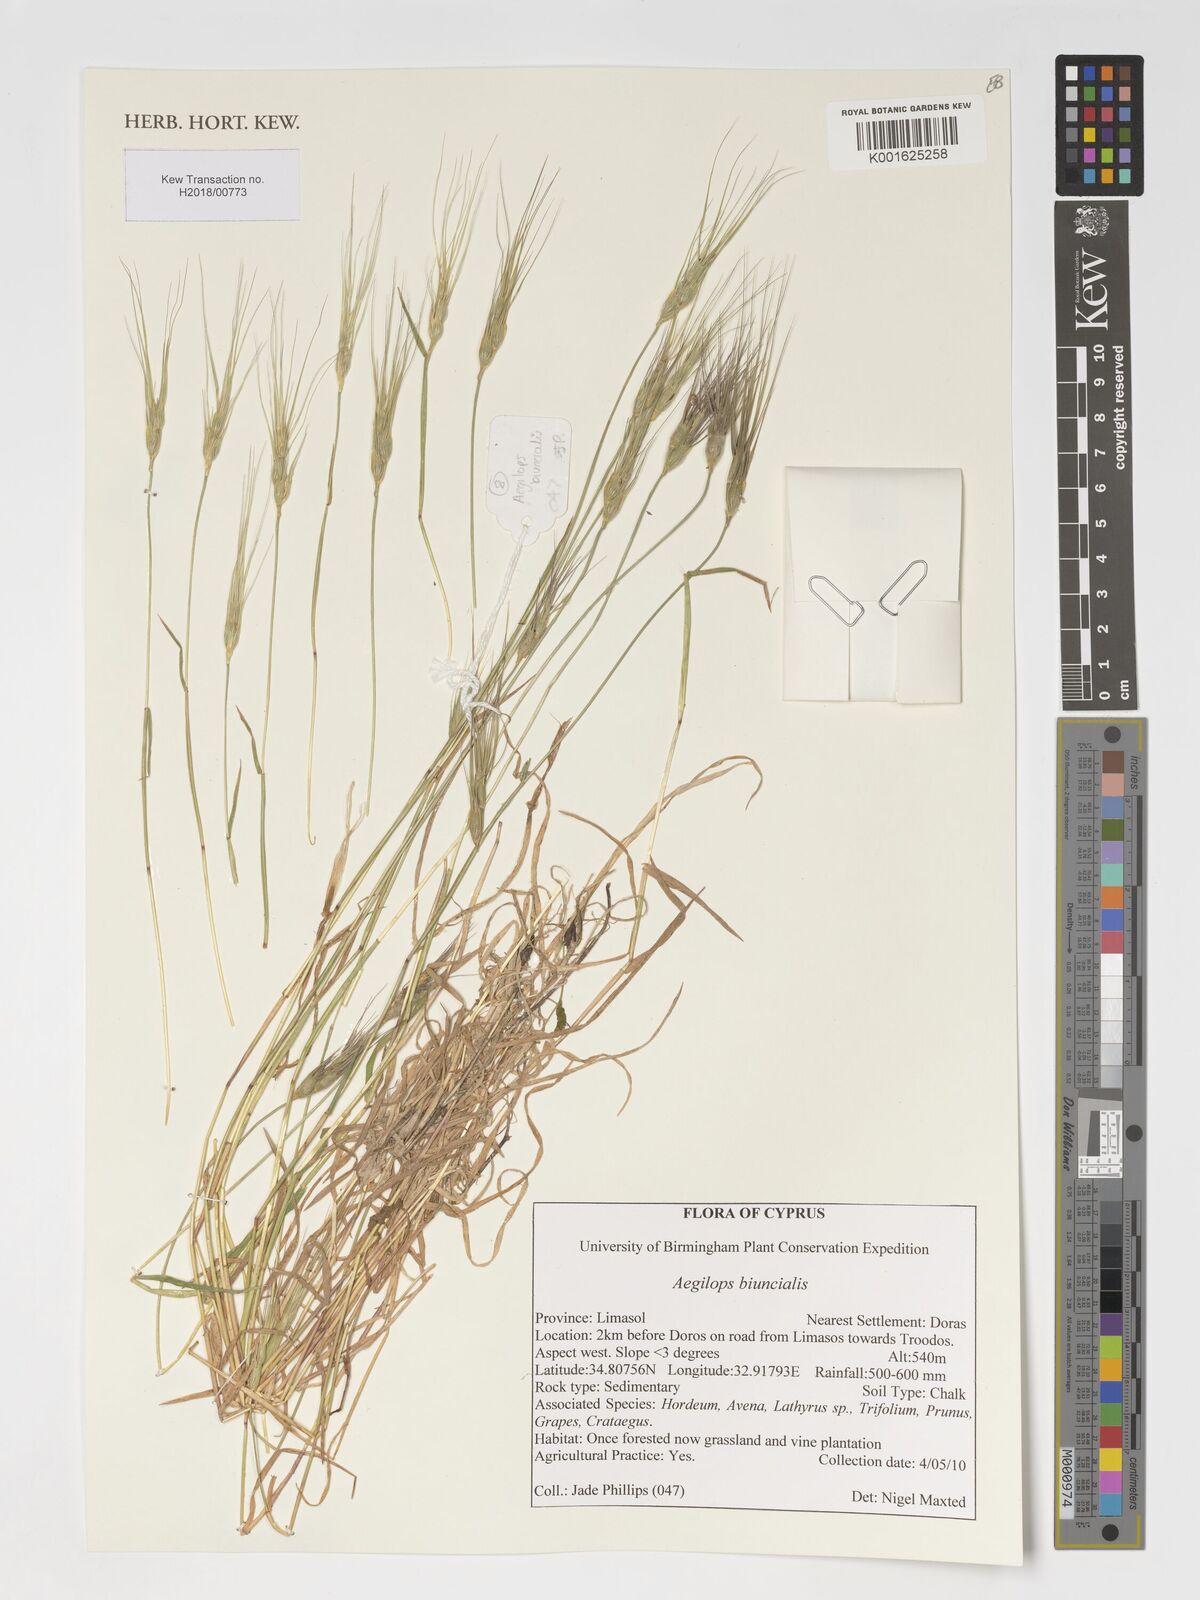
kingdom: Plantae
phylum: Tracheophyta
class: Liliopsida
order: Poales
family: Poaceae
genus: Aegilops
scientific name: Aegilops biuncialis
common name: Mediterranean aegilops
